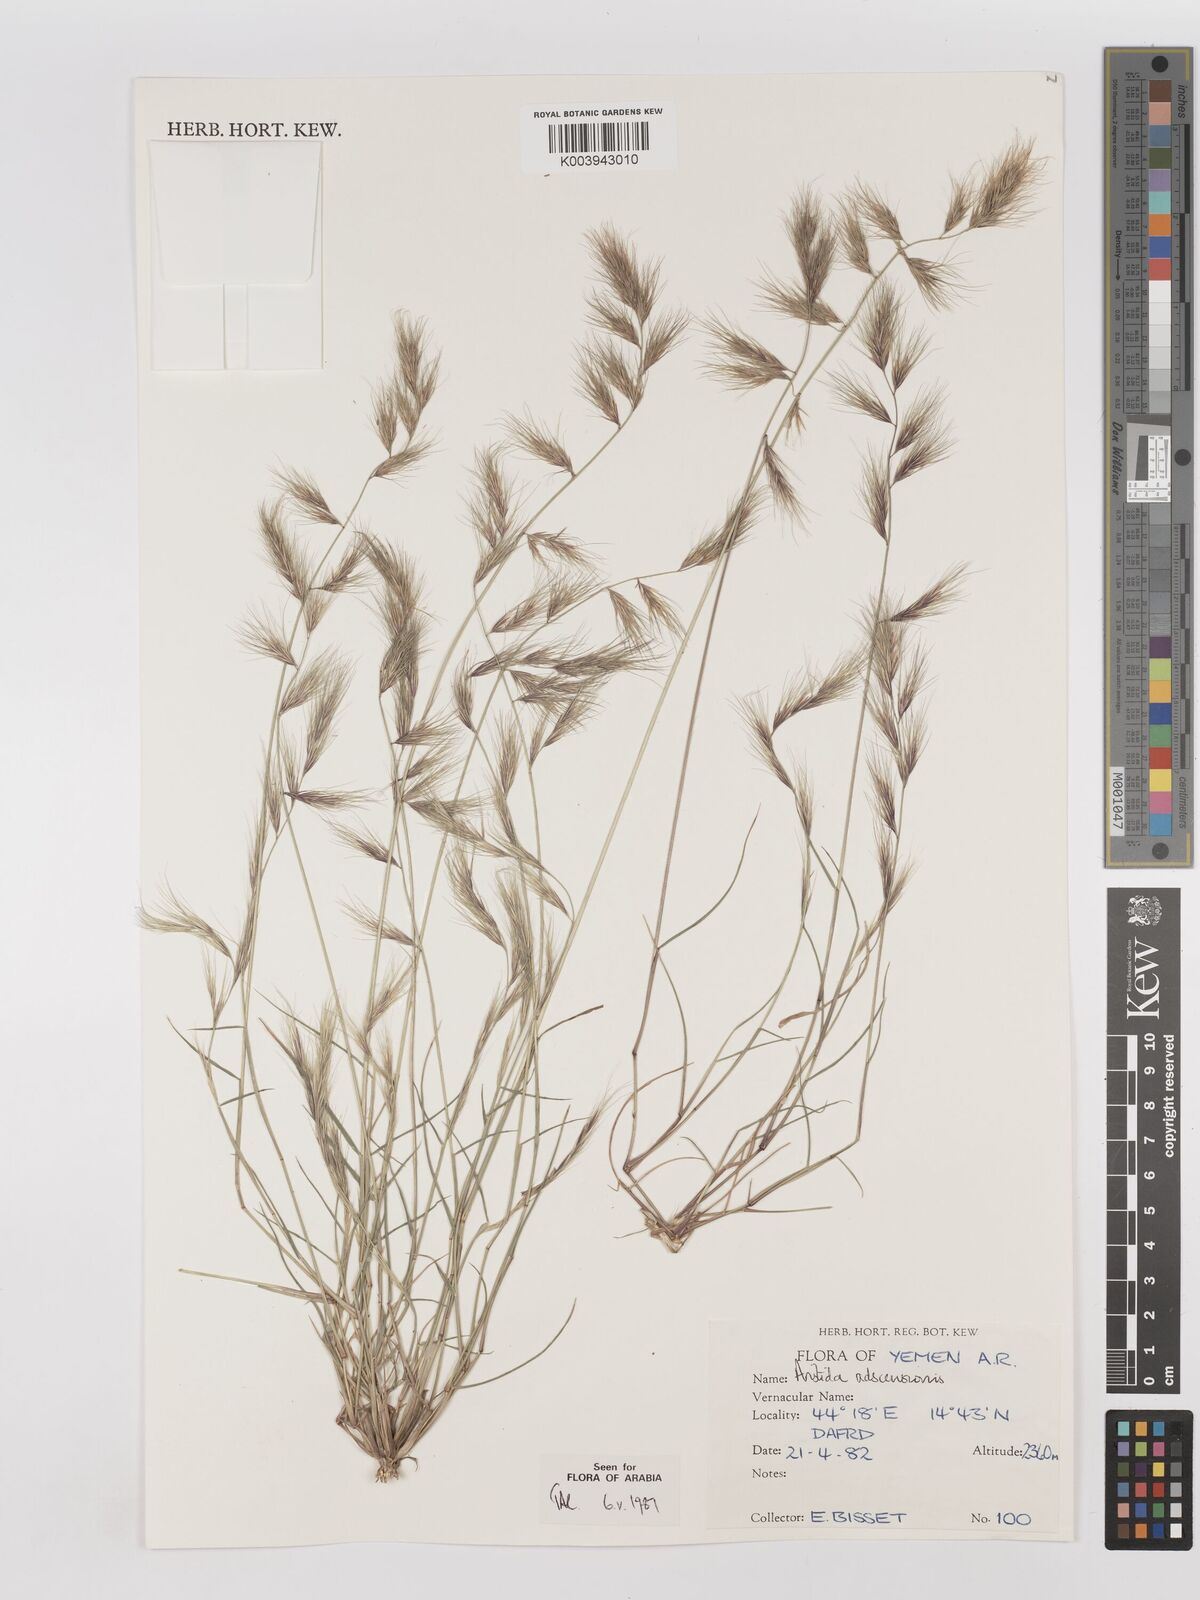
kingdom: Plantae
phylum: Tracheophyta
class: Liliopsida
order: Poales
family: Poaceae
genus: Aristida
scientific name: Aristida adscensionis
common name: Sixweeks threeawn
